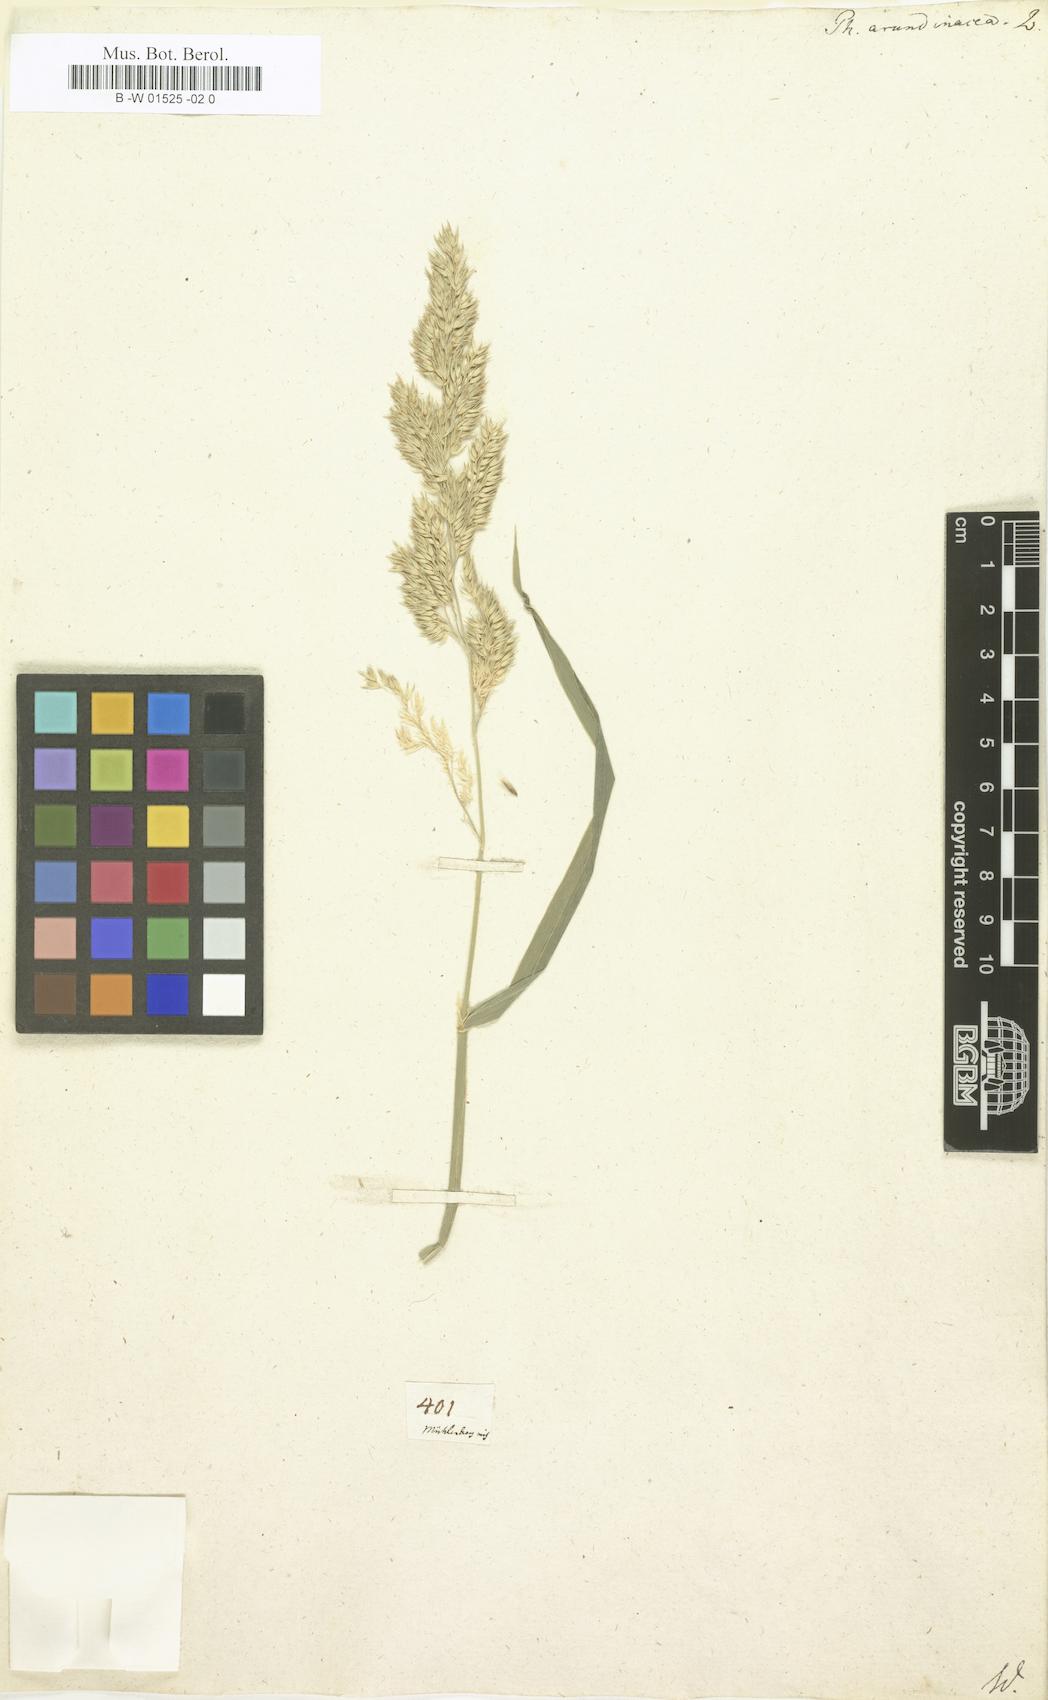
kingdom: Plantae
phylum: Tracheophyta
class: Liliopsida
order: Poales
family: Poaceae
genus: Phalaris
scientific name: Phalaris arundinacea
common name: Reed canary-grass
